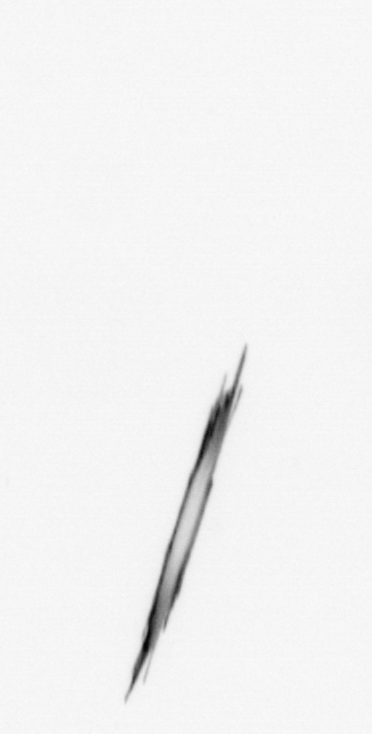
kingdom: Bacteria
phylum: Cyanobacteria
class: Cyanobacteriia
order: Cyanobacteriales
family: Microcoleaceae
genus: Trichodesmium
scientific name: Trichodesmium
